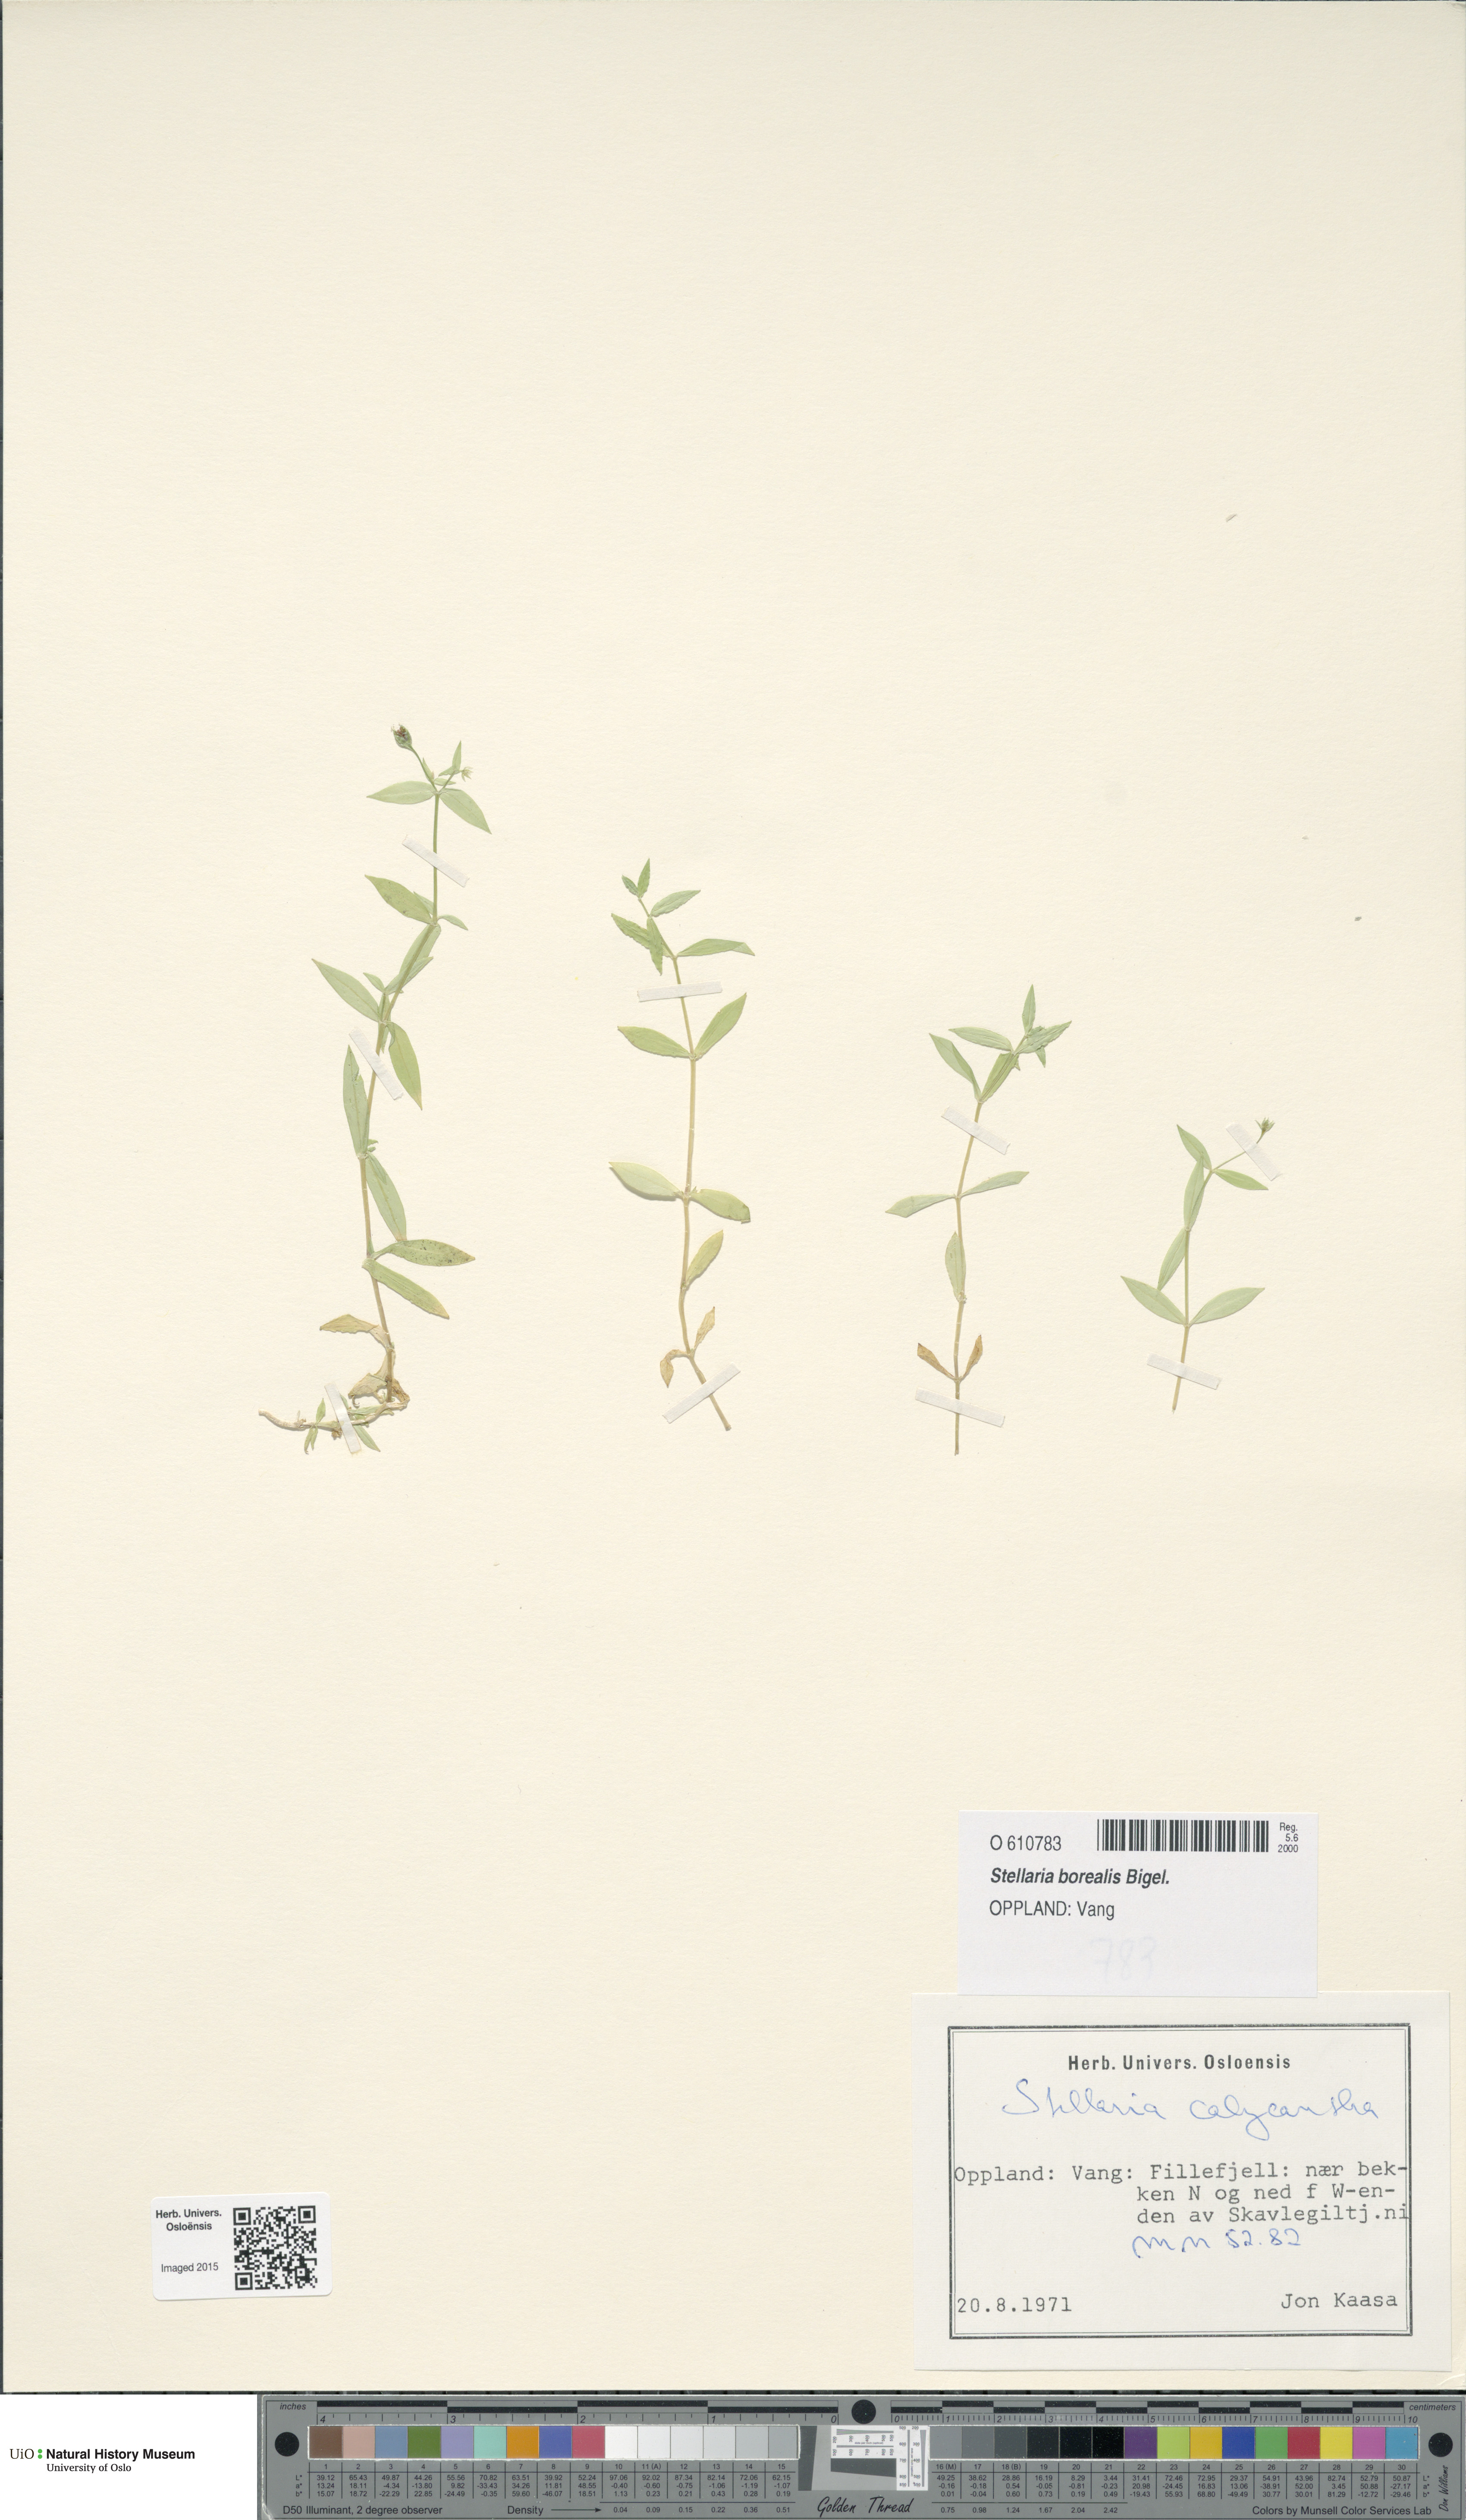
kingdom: Plantae
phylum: Tracheophyta
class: Magnoliopsida
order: Caryophyllales
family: Caryophyllaceae
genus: Stellaria
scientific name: Stellaria borealis
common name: Boreal starwort
